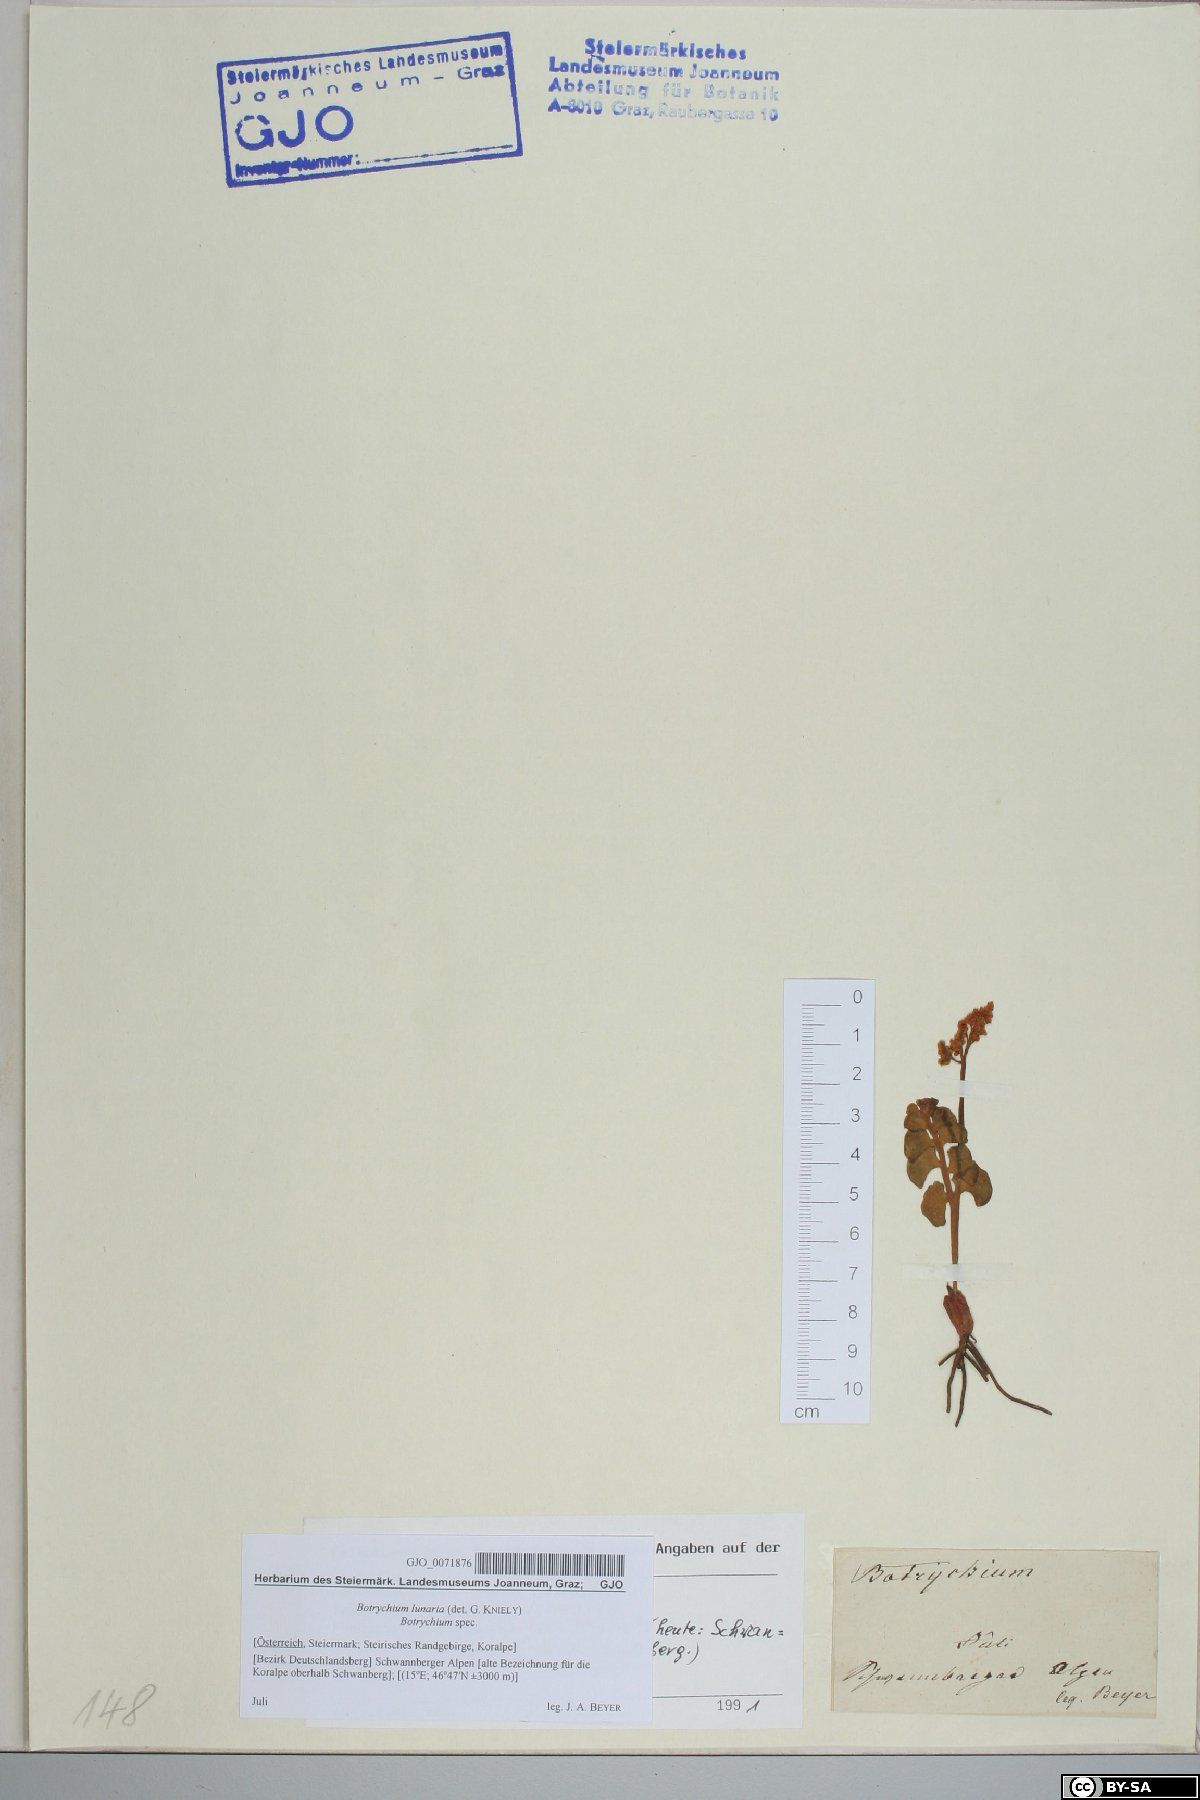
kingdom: Plantae
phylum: Tracheophyta
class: Polypodiopsida
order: Ophioglossales
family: Ophioglossaceae
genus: Botrychium
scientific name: Botrychium lunaria
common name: Moonwort
